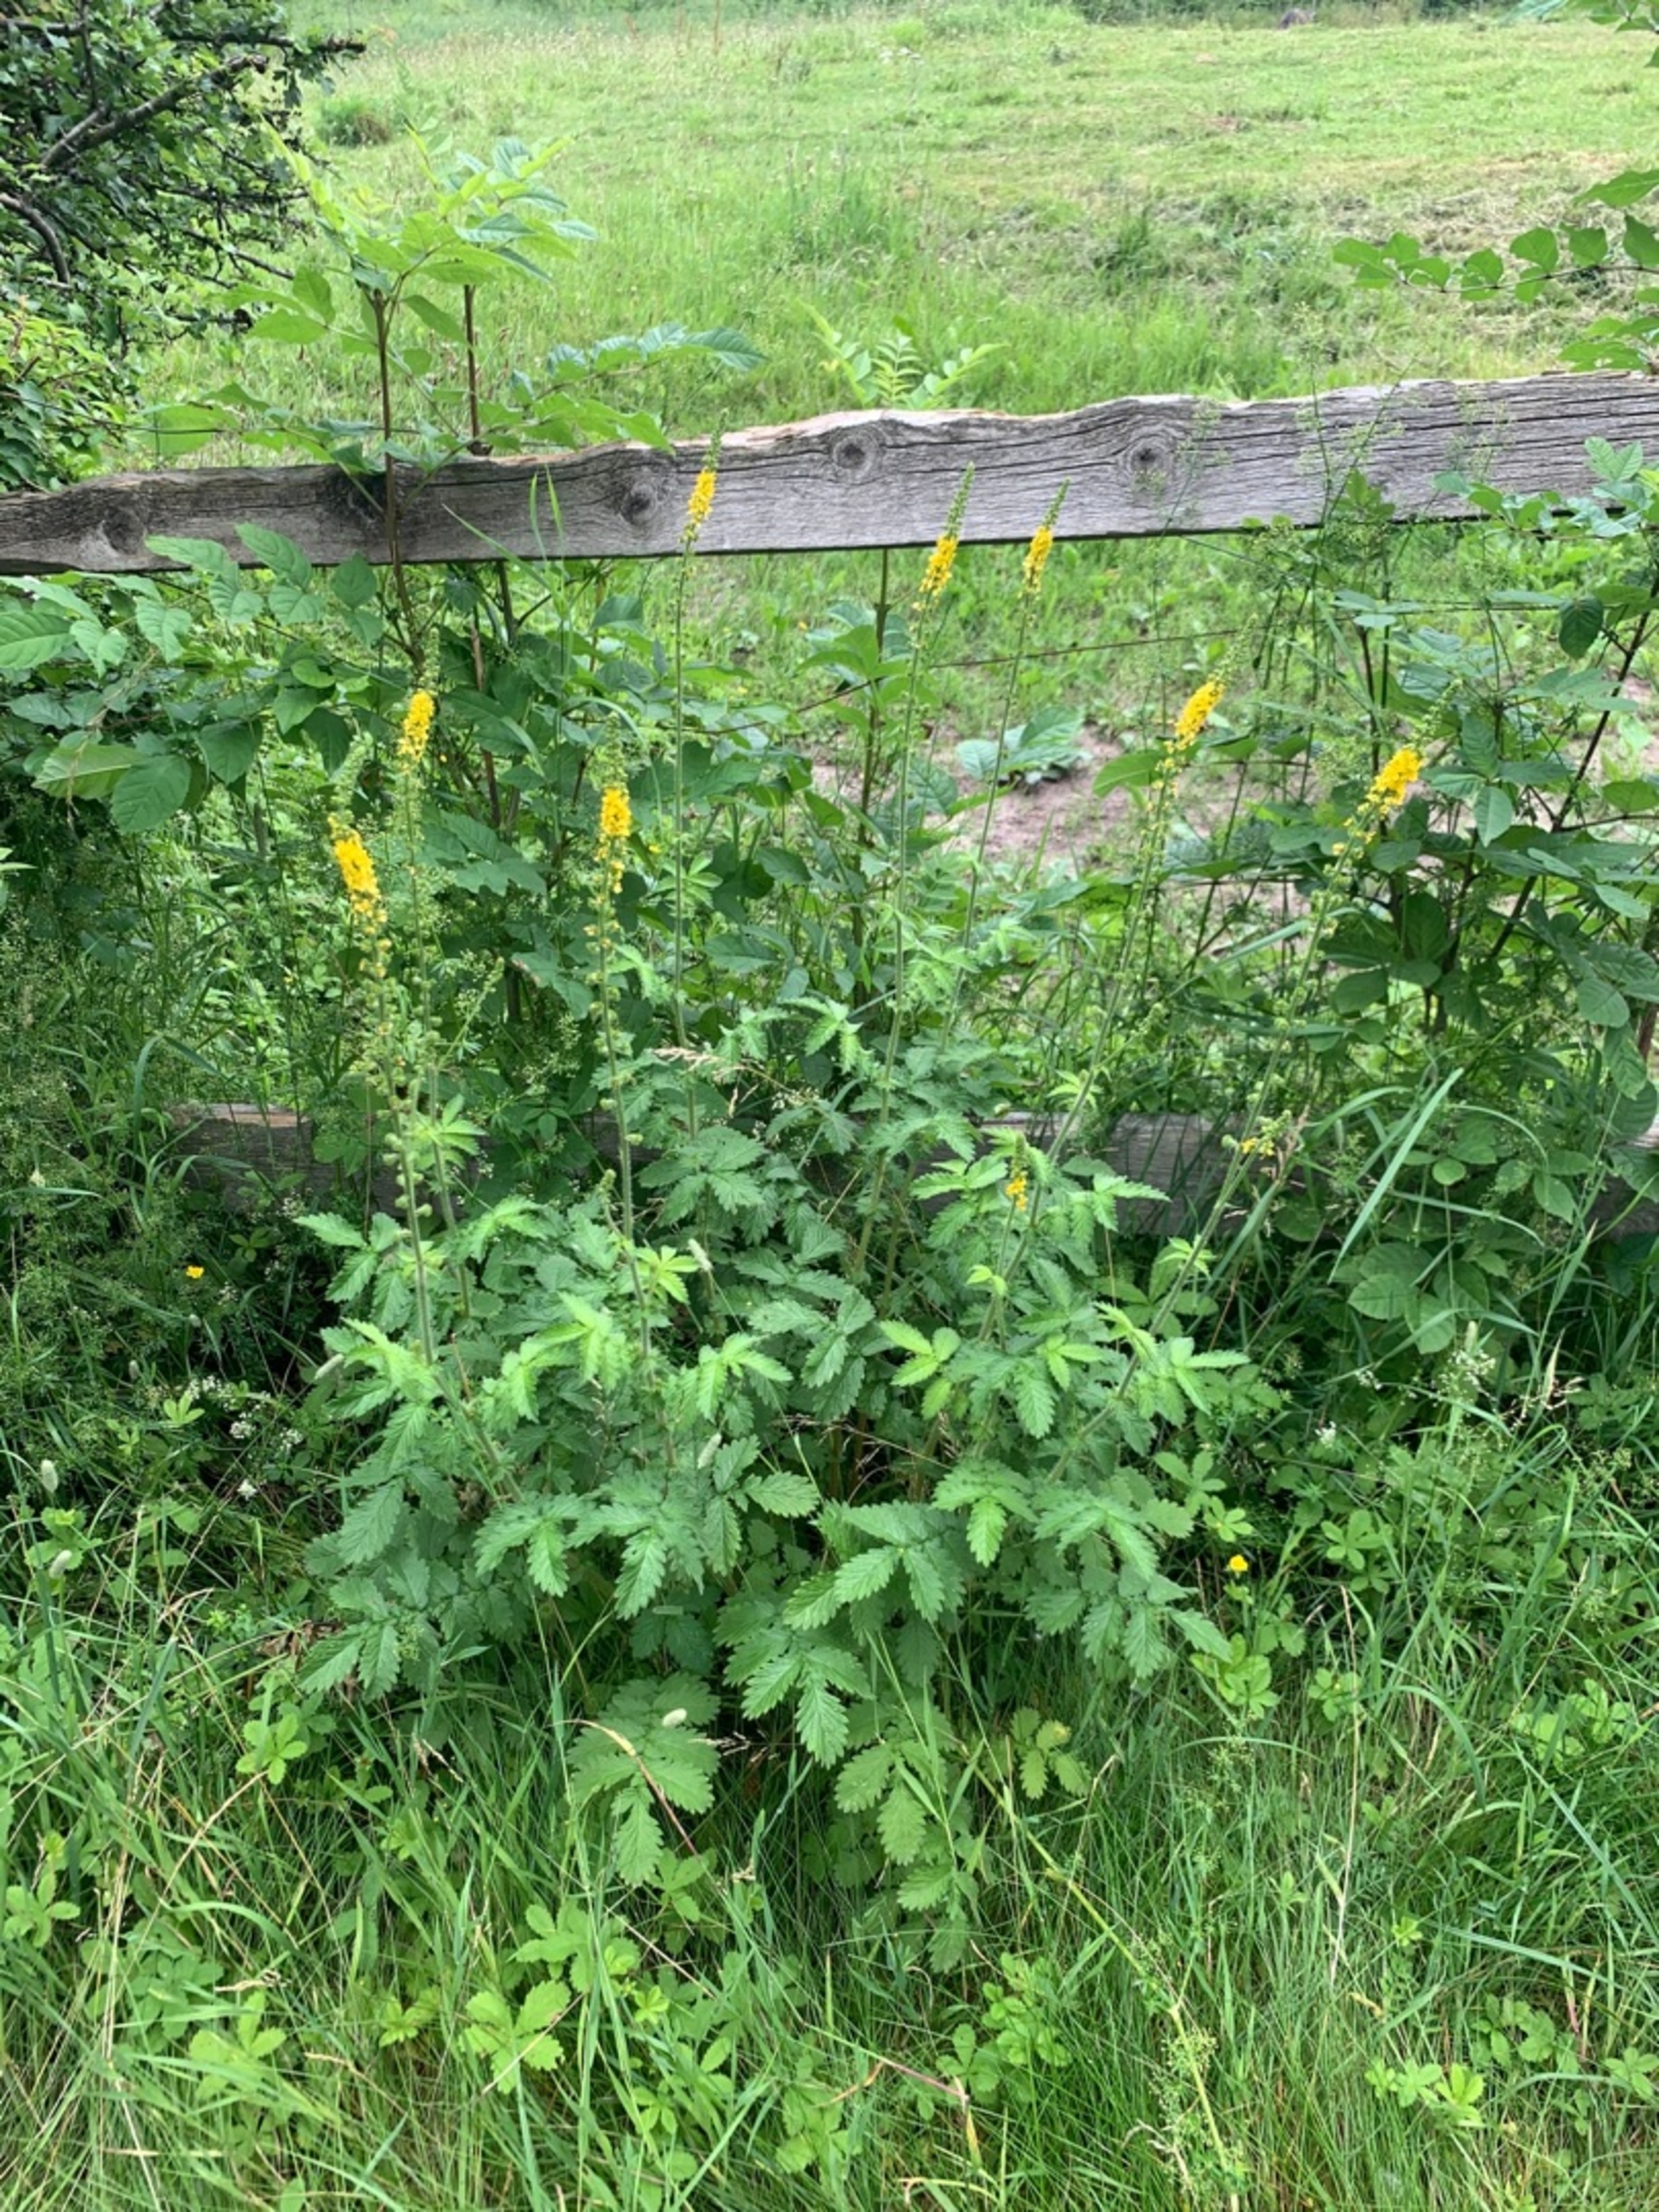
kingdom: Plantae
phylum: Tracheophyta
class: Magnoliopsida
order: Rosales
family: Rosaceae
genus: Agrimonia
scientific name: Agrimonia eupatoria
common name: Almindelig agermåne
